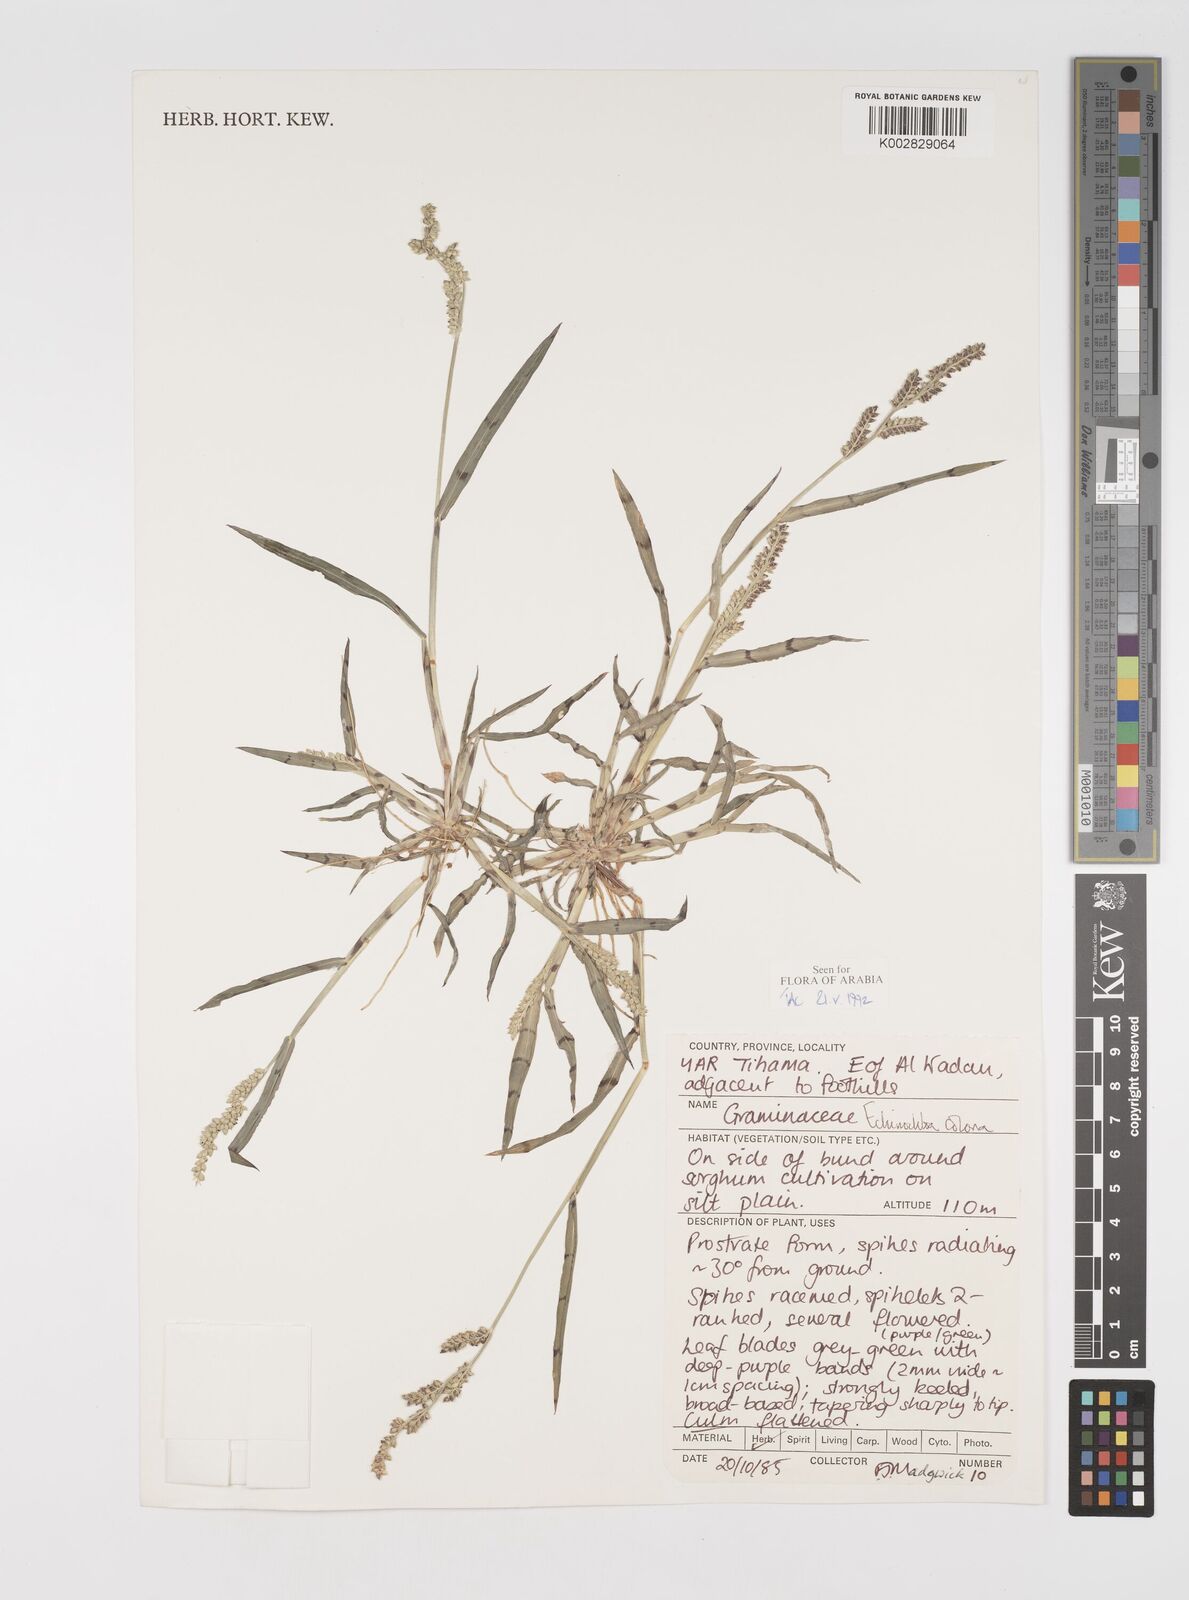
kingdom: Plantae
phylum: Tracheophyta
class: Liliopsida
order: Poales
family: Poaceae
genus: Echinochloa
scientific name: Echinochloa colonum
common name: Jungle rice
